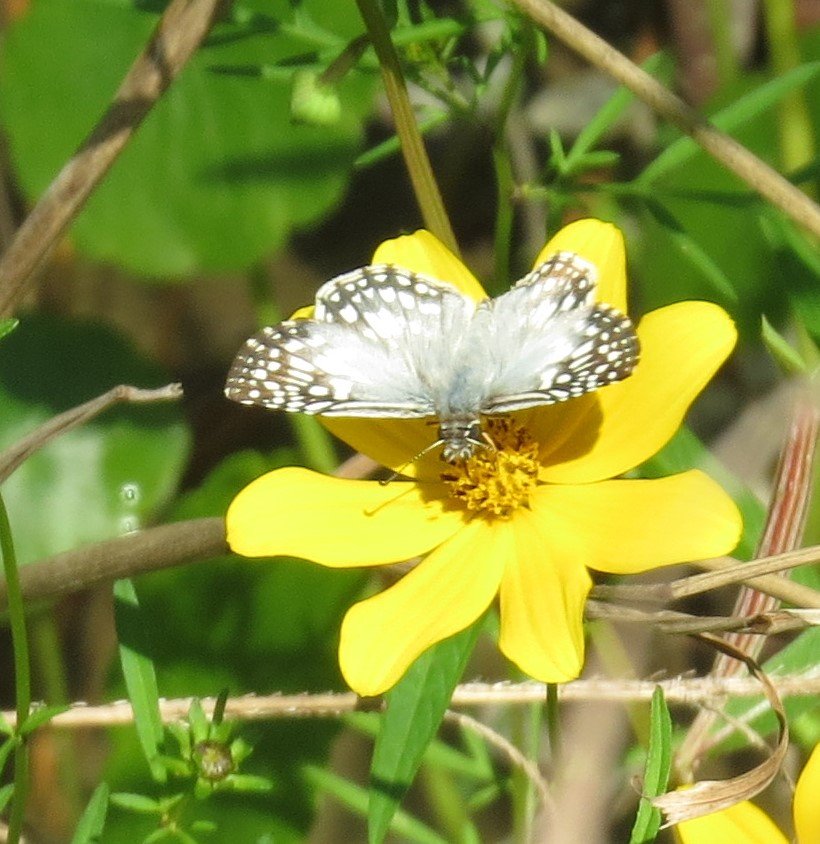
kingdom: Animalia
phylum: Arthropoda
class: Insecta
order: Lepidoptera
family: Hesperiidae
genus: Pyrgus
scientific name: Pyrgus oileus
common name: Tropical Checkered-Skipper
